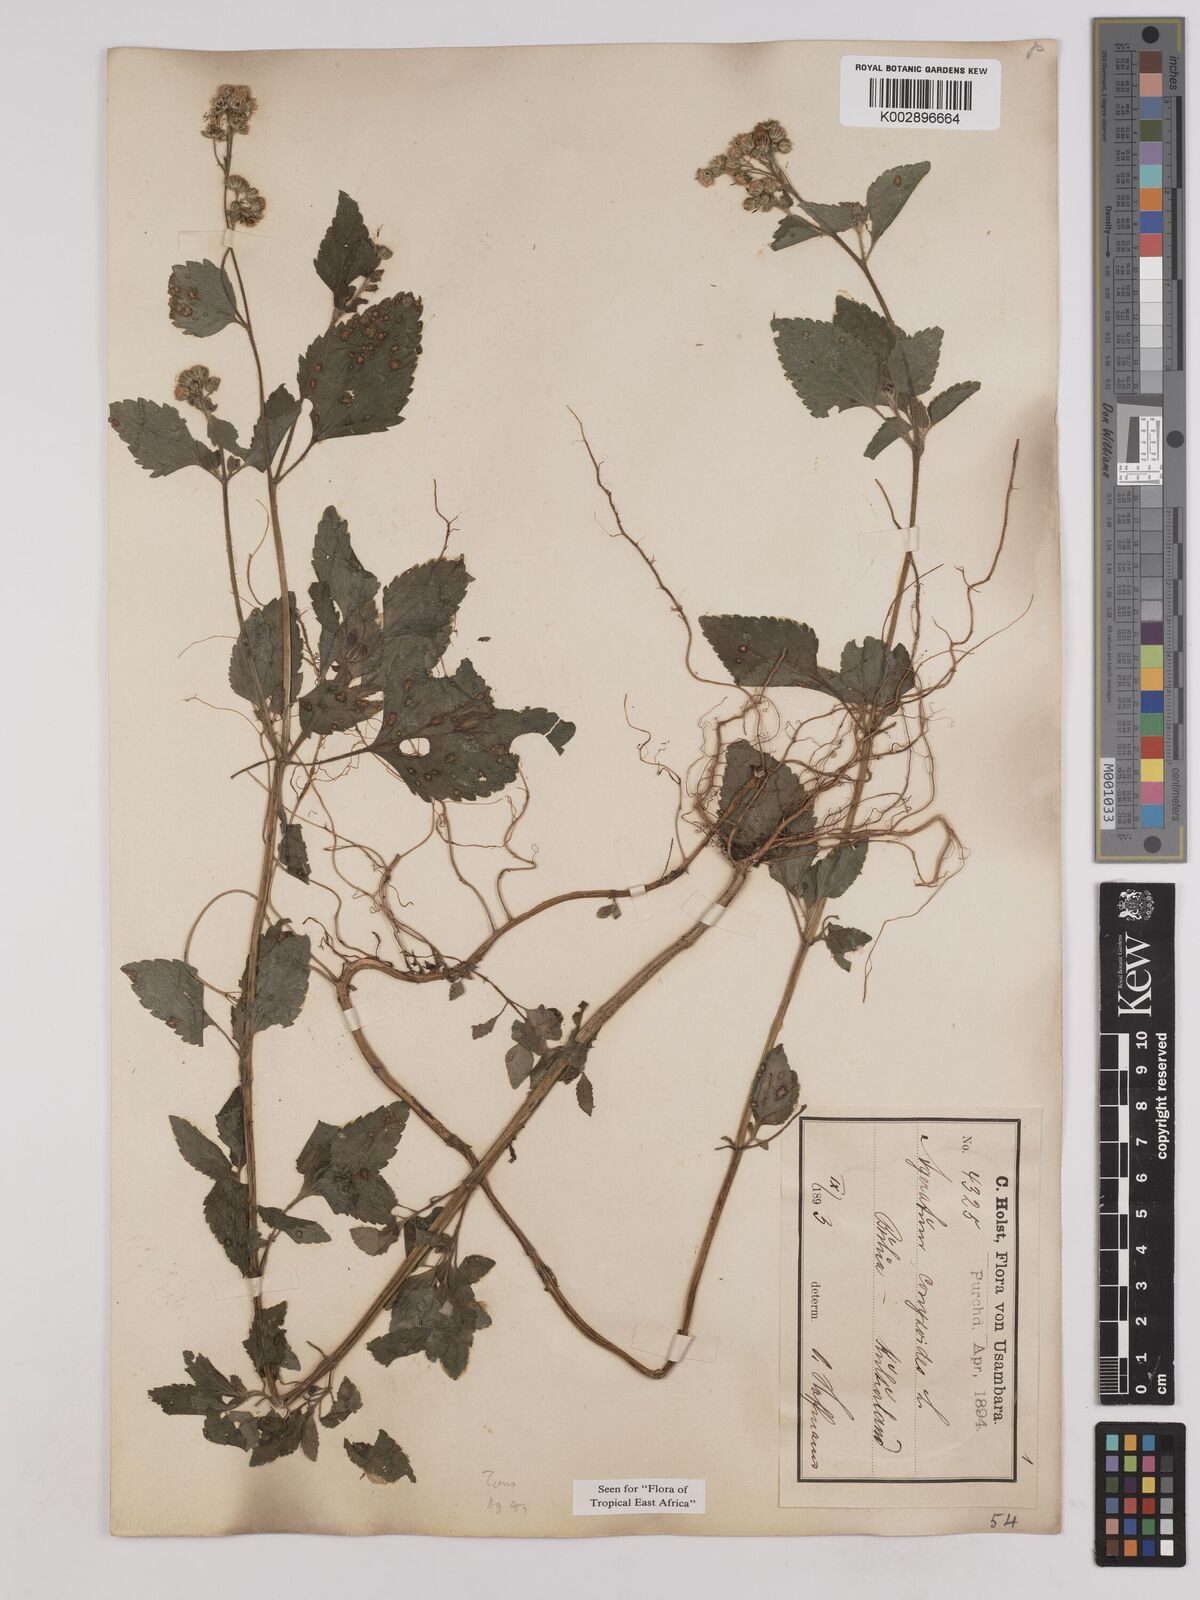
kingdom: Plantae
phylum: Tracheophyta
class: Magnoliopsida
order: Asterales
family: Asteraceae
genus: Ageratum
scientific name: Ageratum conyzoides
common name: Tropical whiteweed
